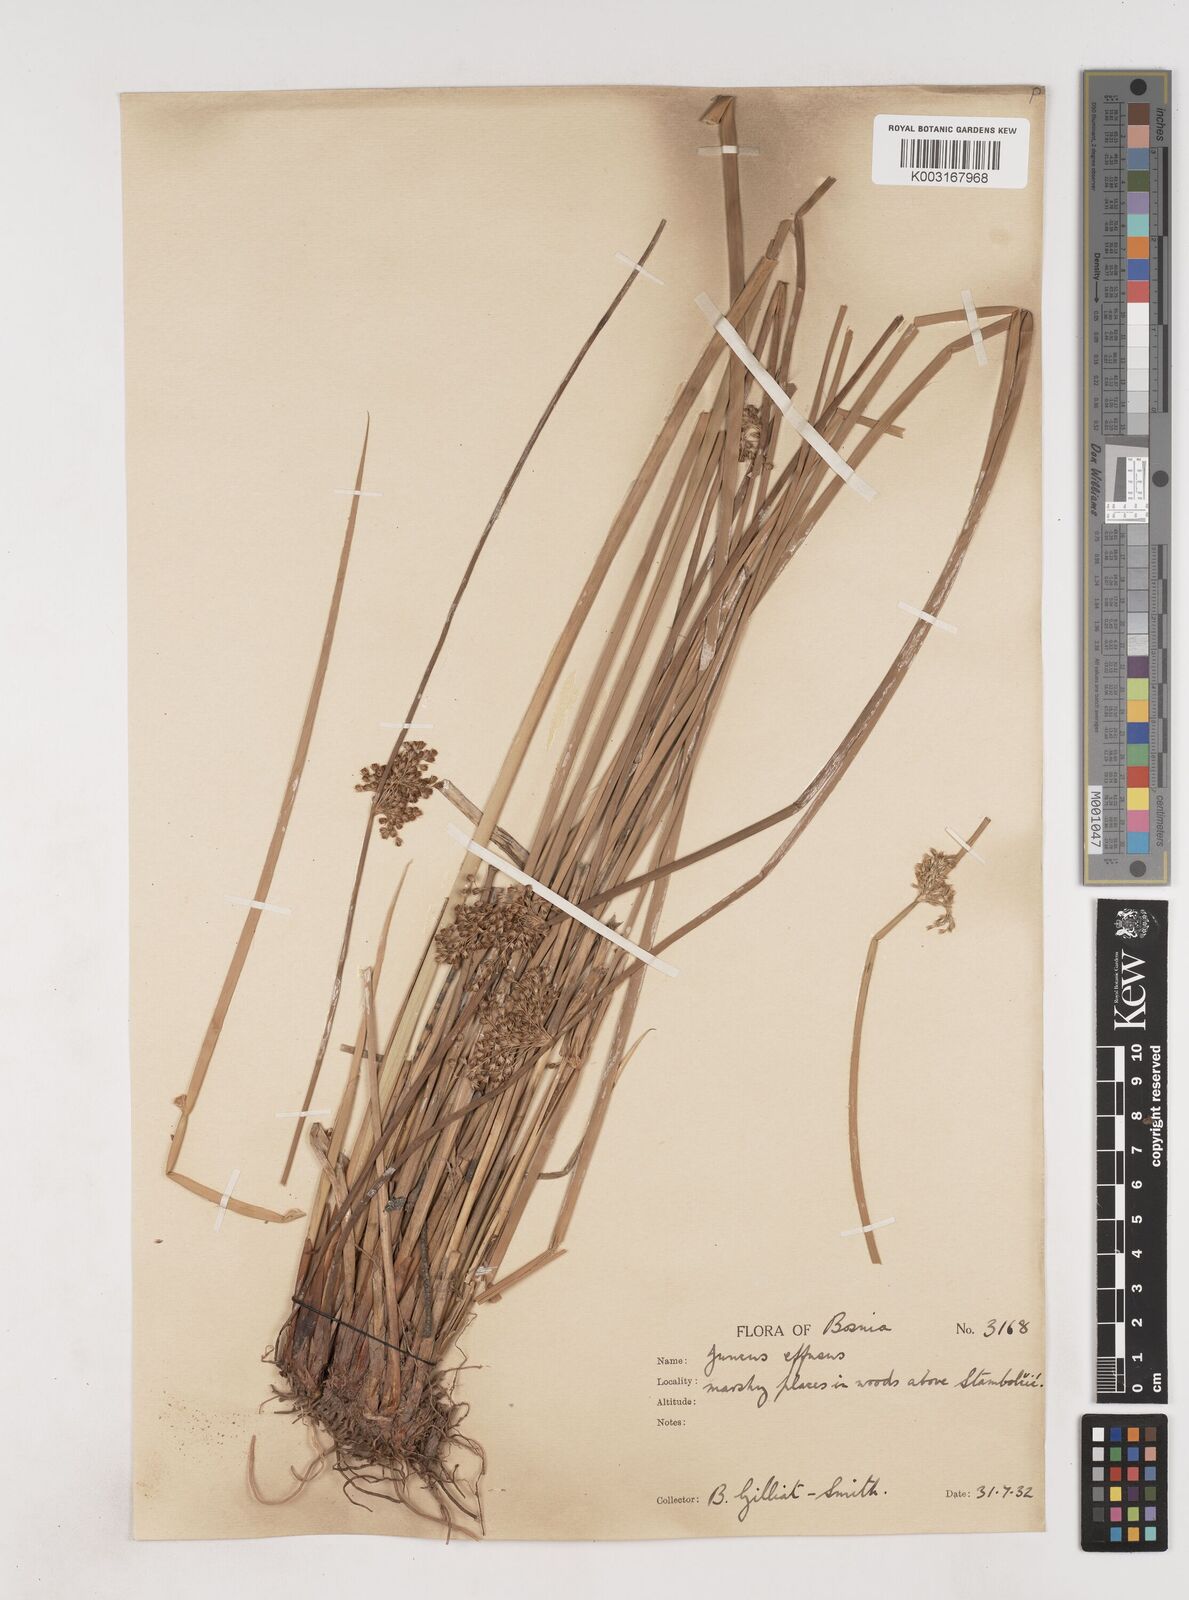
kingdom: Plantae
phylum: Tracheophyta
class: Liliopsida
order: Poales
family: Juncaceae
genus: Juncus
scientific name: Juncus effusus
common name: Soft rush
